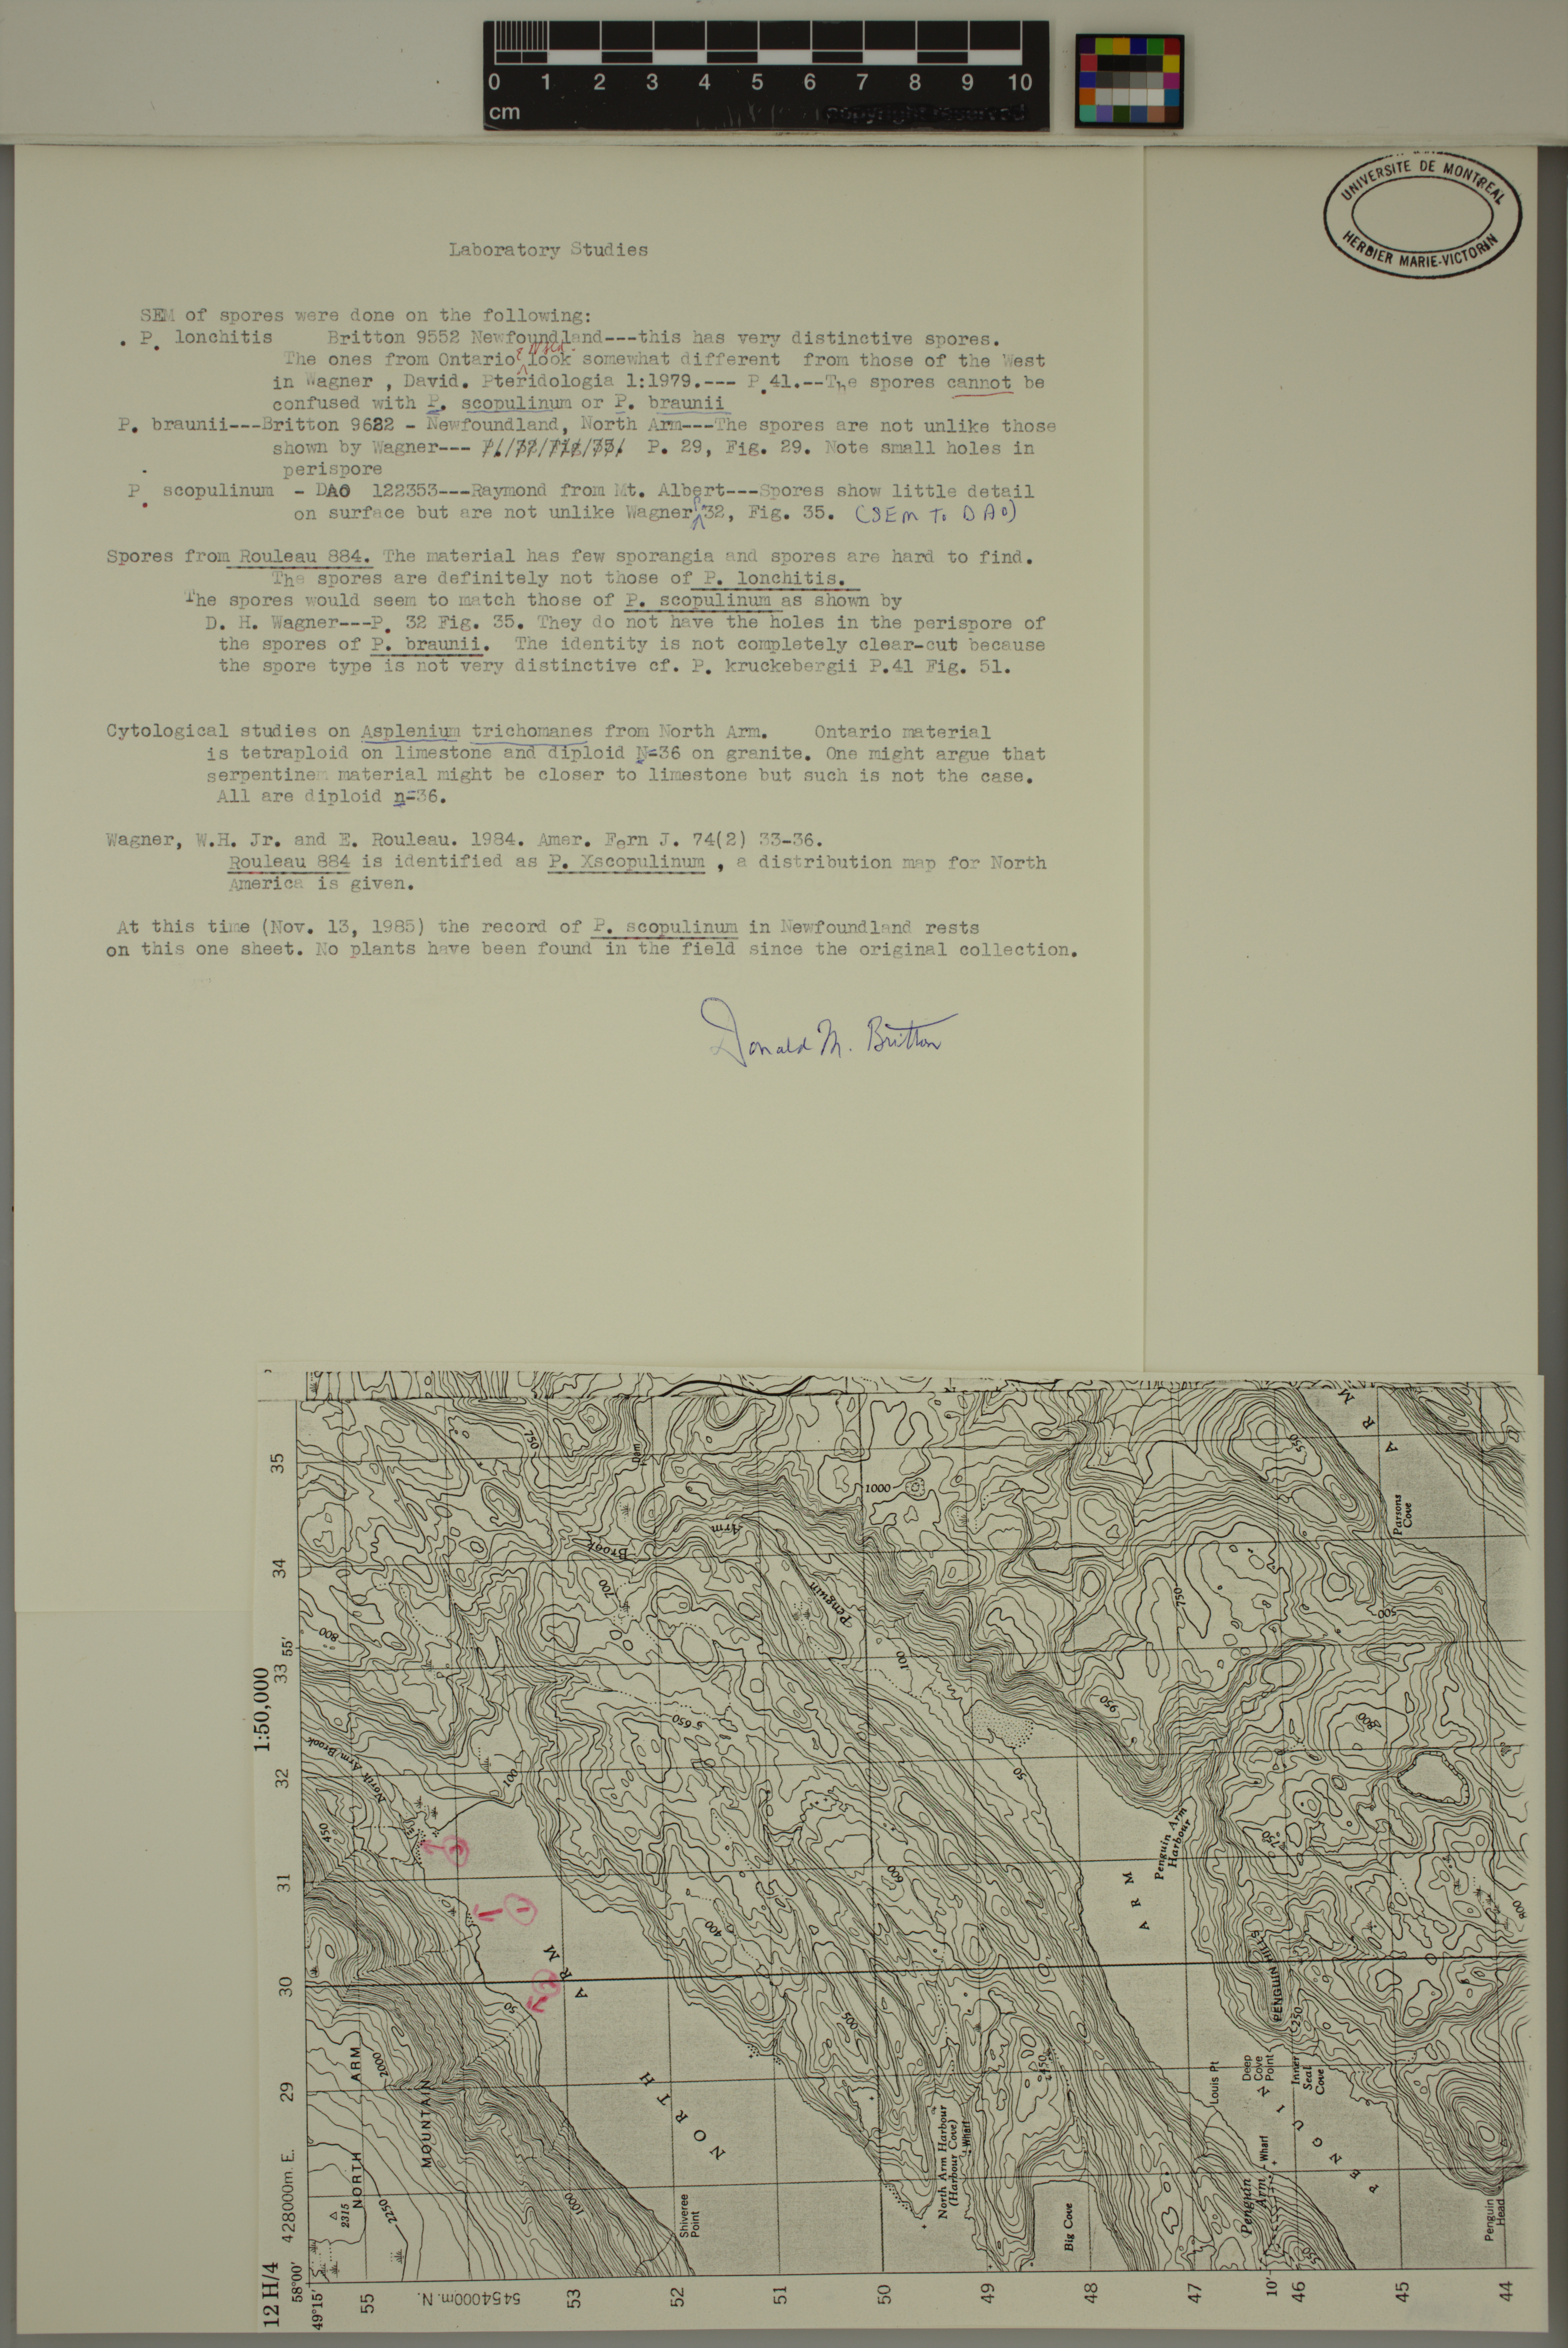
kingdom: Plantae
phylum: Tracheophyta
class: Polypodiopsida
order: Polypodiales
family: Dryopteridaceae
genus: Polystichum
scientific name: Polystichum scopulinum
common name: Eaton's shield fern
